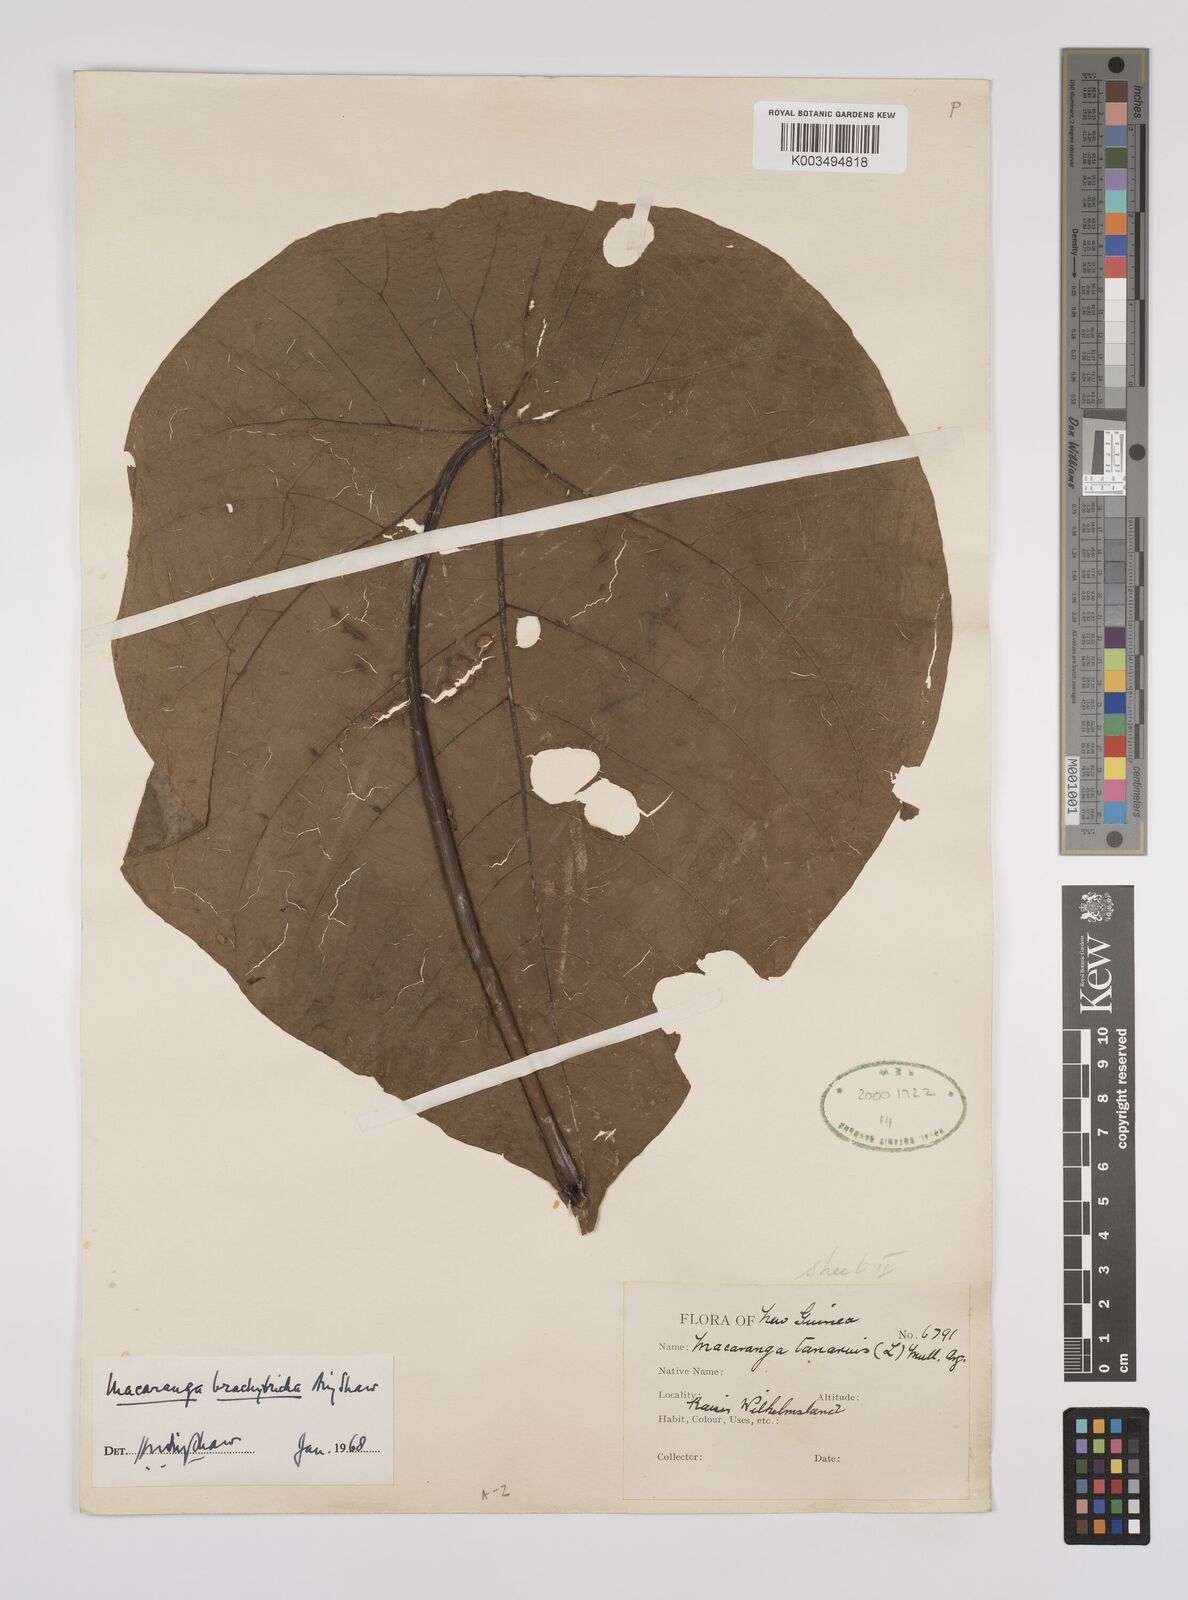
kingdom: Plantae
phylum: Tracheophyta
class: Magnoliopsida
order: Malpighiales
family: Euphorbiaceae
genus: Macaranga
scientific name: Macaranga brachythyrsa
